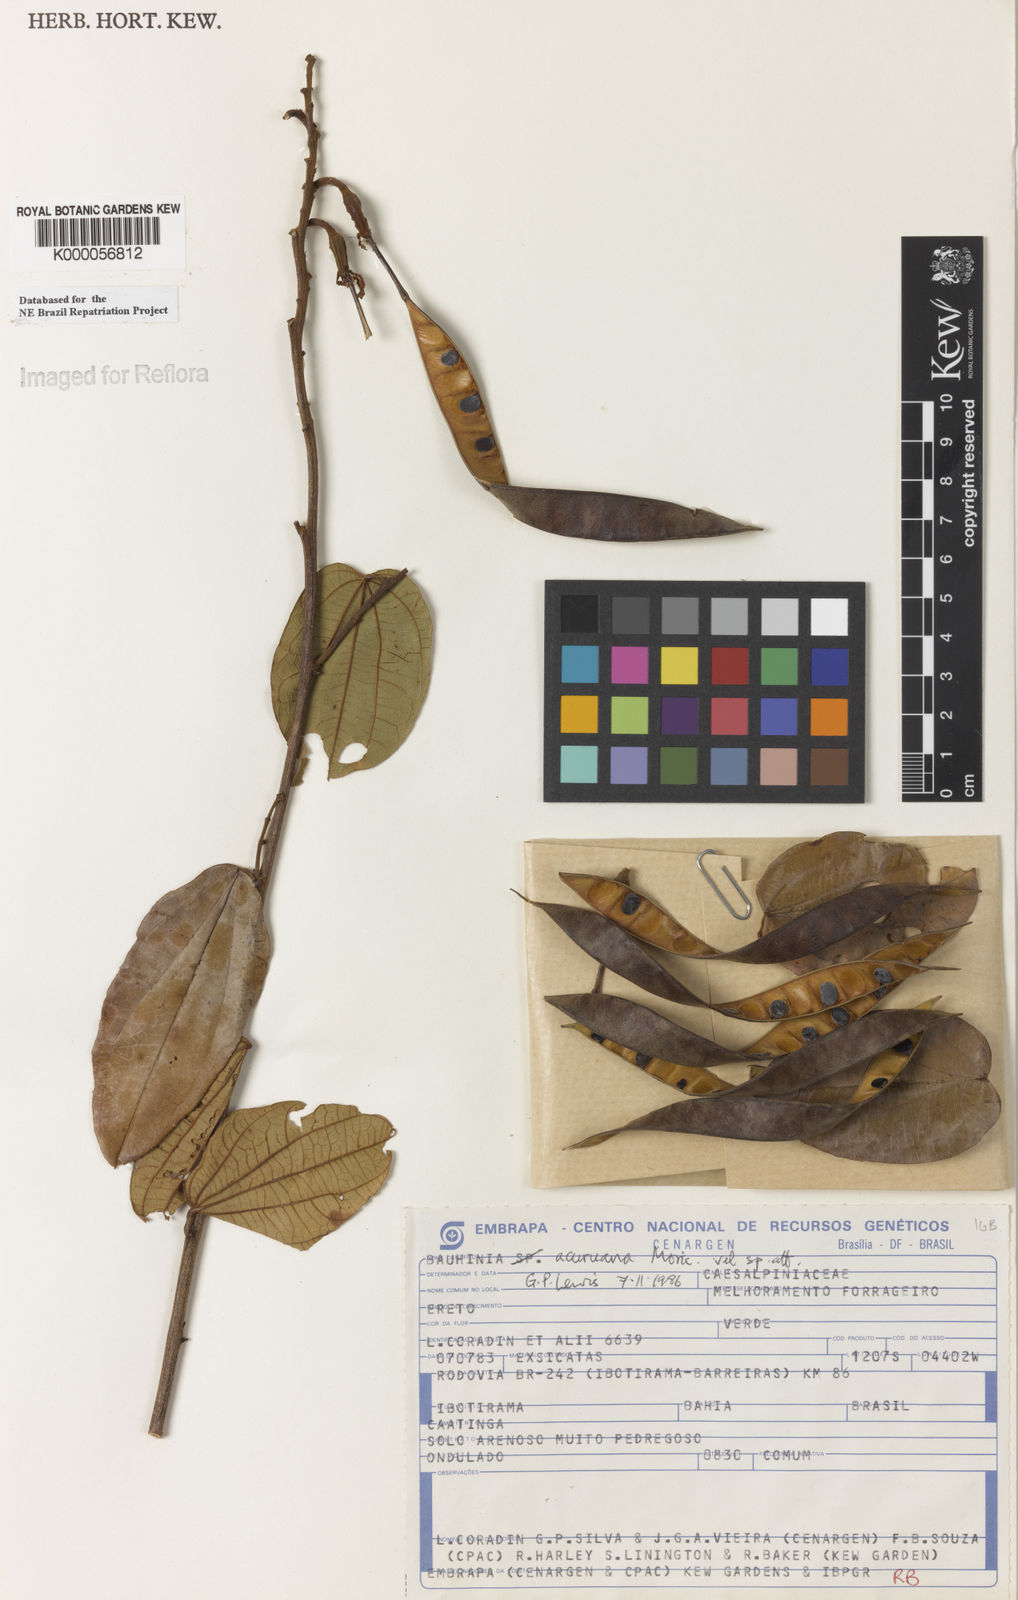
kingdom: Plantae
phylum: Tracheophyta
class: Magnoliopsida
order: Fabales
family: Fabaceae
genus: Bauhinia
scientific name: Bauhinia acuruana
